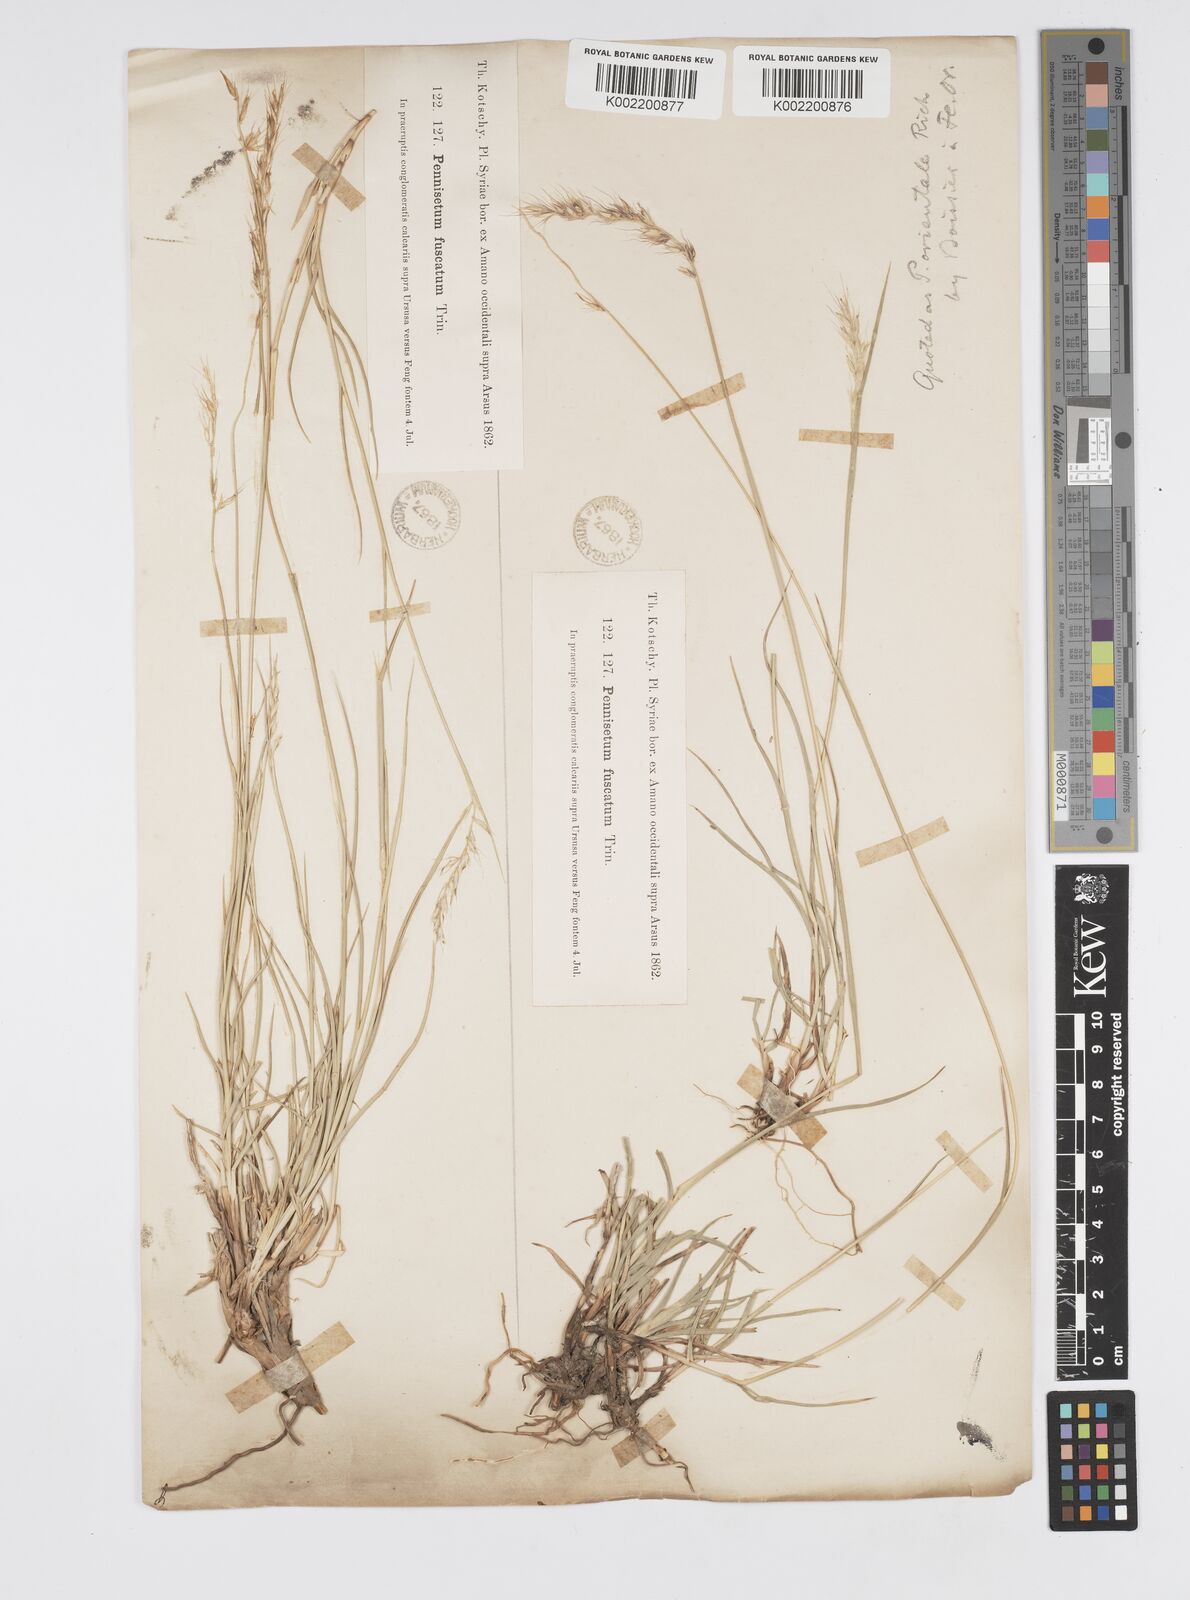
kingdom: Plantae
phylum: Tracheophyta
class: Liliopsida
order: Poales
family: Poaceae
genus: Cenchrus
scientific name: Cenchrus orientalis
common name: Oriental fountain grass
